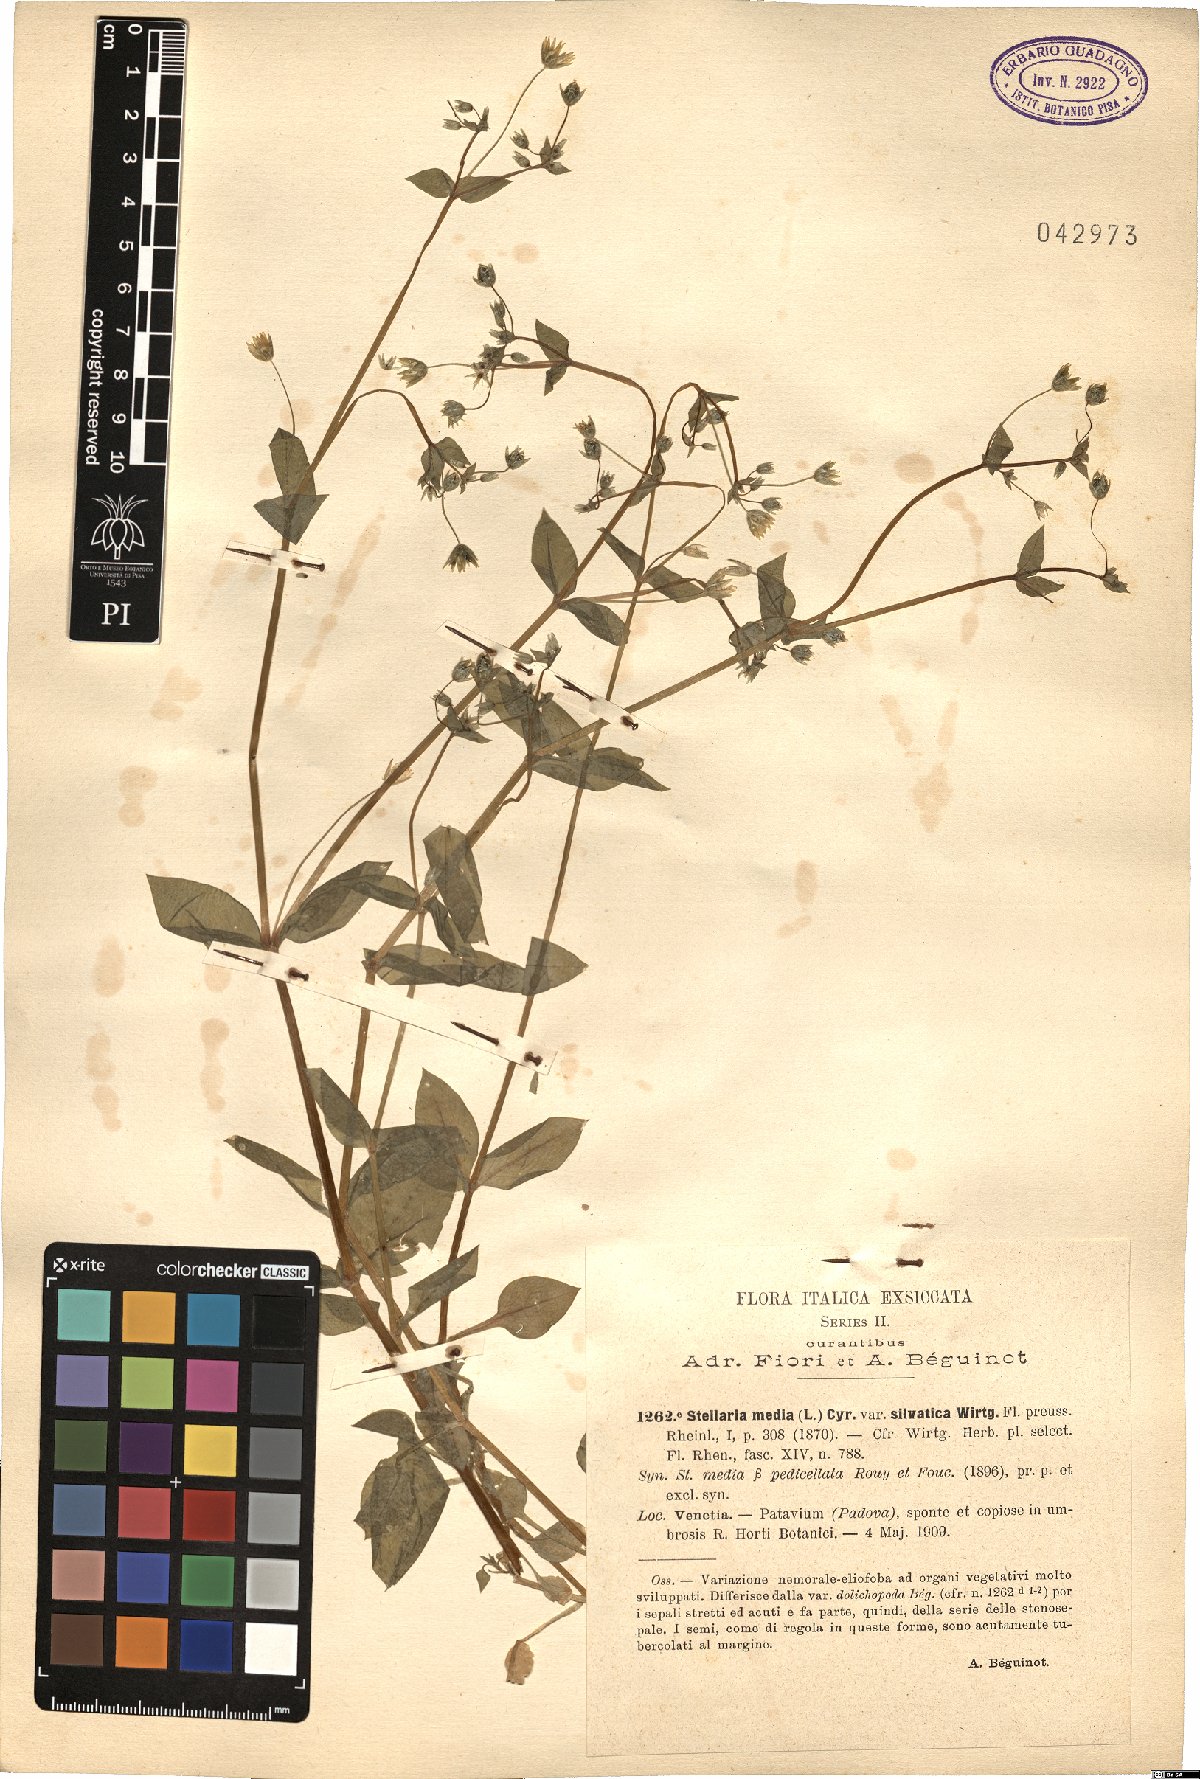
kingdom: Plantae
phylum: Tracheophyta
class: Magnoliopsida
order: Caryophyllales
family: Caryophyllaceae
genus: Stellaria
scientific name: Stellaria media
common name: Common chickweed
